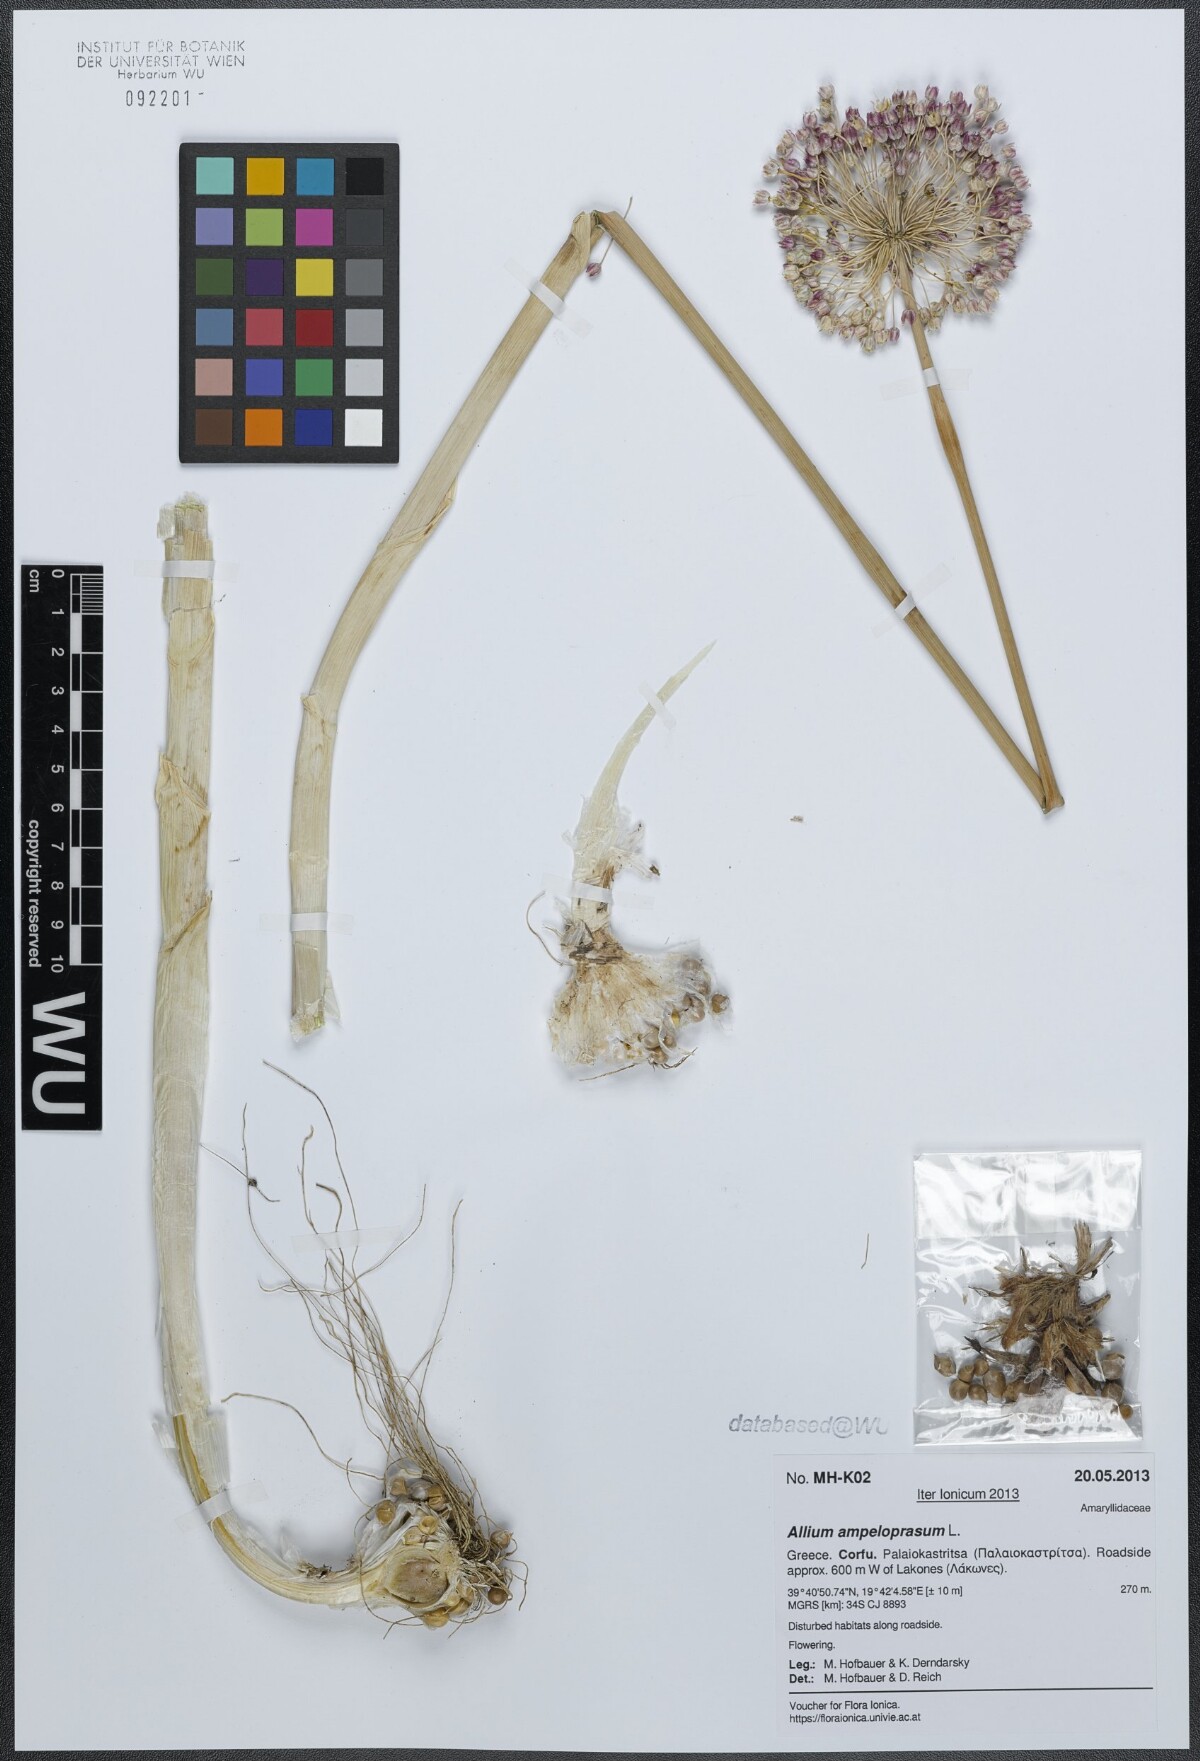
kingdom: Plantae
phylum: Tracheophyta
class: Liliopsida
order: Asparagales
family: Amaryllidaceae
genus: Allium
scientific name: Allium ampeloprasum
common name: Wild leek
